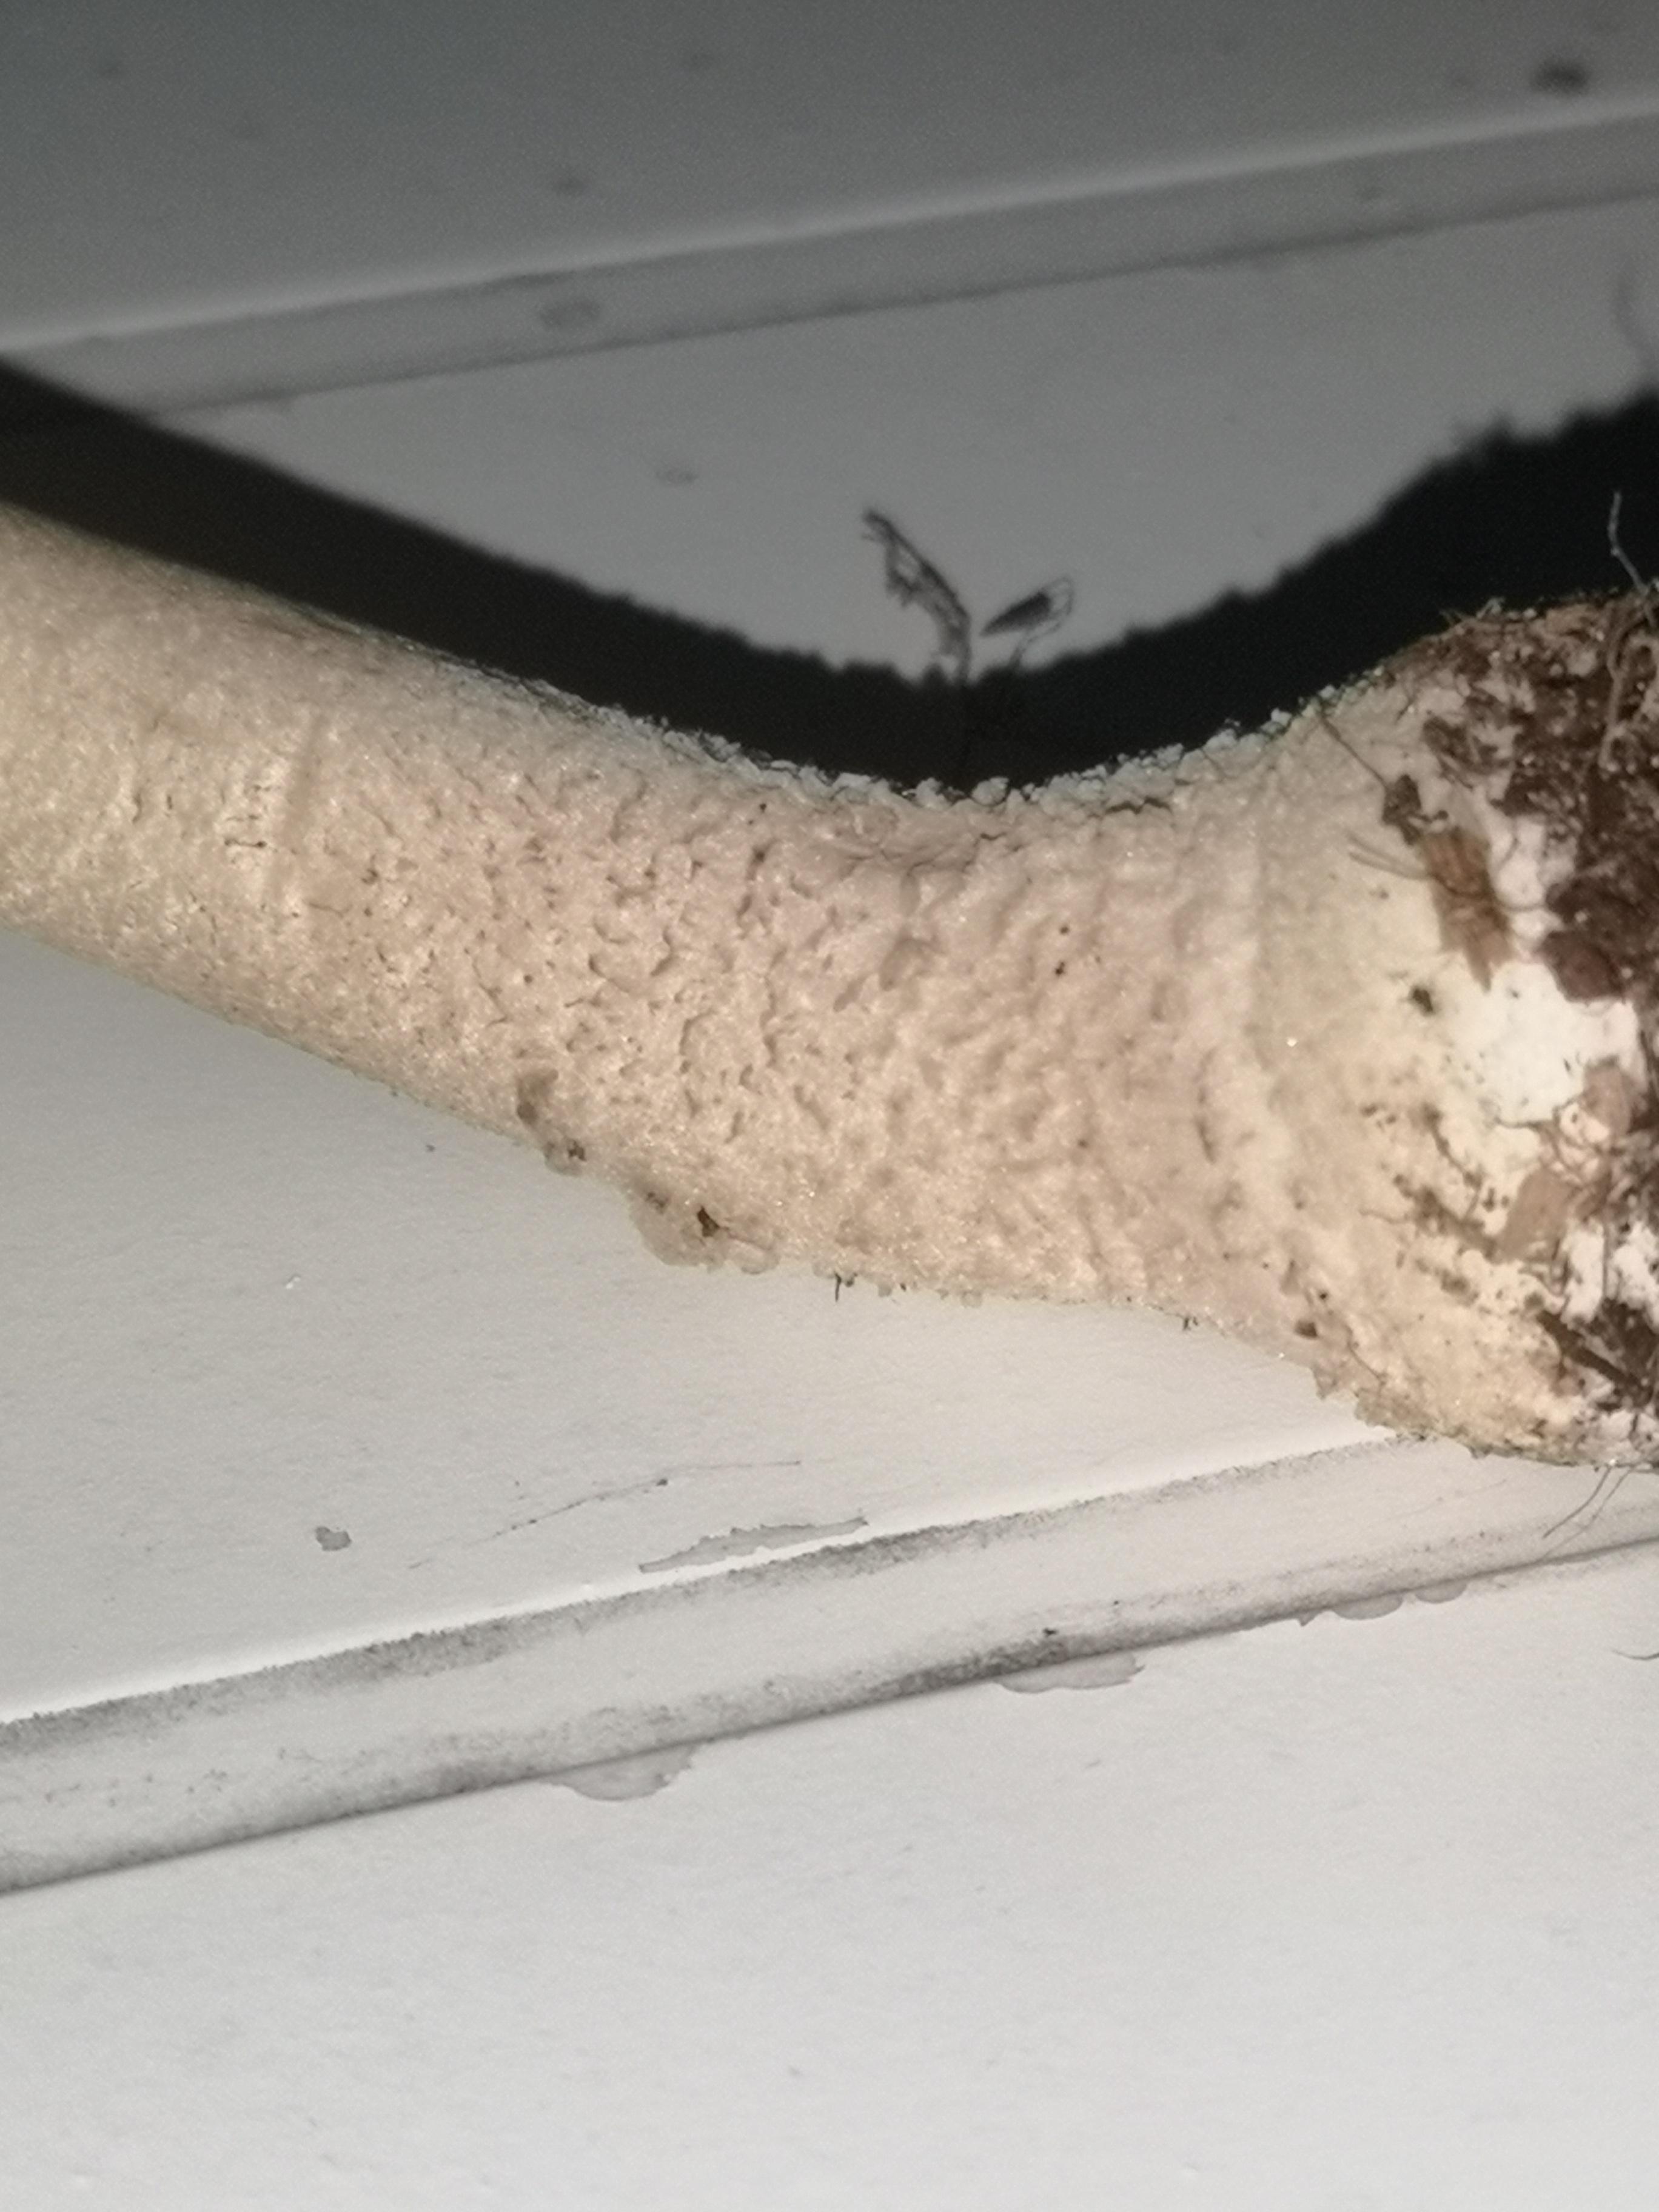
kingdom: Fungi
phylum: Basidiomycota
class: Agaricomycetes
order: Agaricales
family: Amanitaceae
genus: Amanita
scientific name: Amanita
